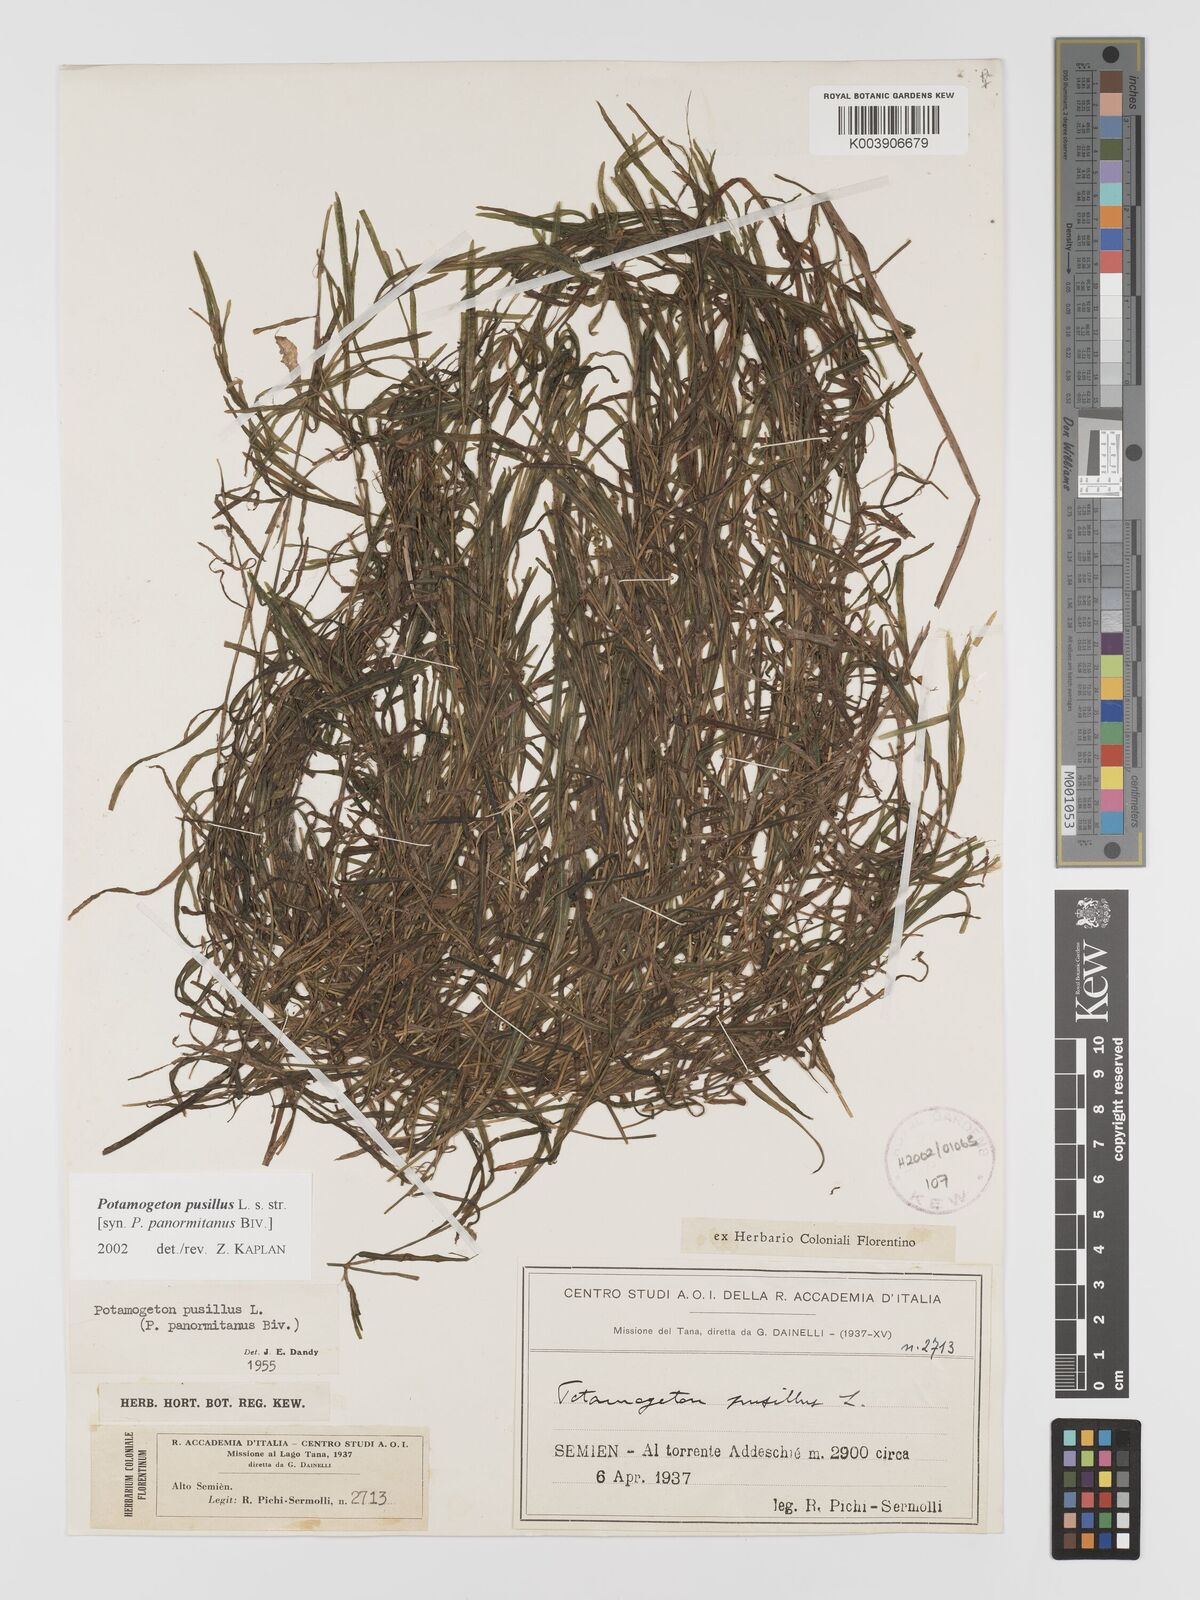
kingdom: Plantae
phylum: Tracheophyta
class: Liliopsida
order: Alismatales
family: Potamogetonaceae
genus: Potamogeton
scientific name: Potamogeton parvifolius
